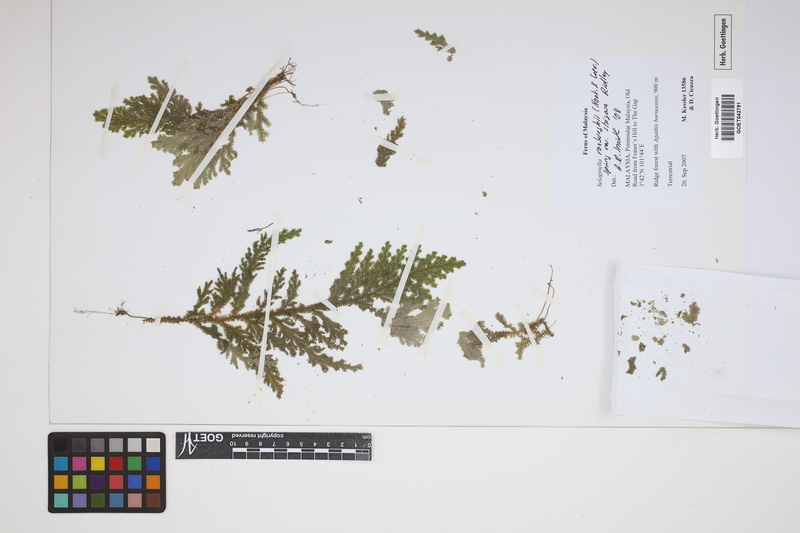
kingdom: Plantae
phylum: Tracheophyta
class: Lycopodiopsida
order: Selaginellales
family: Selaginellaceae
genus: Selaginella
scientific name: Selaginella roxburghii
